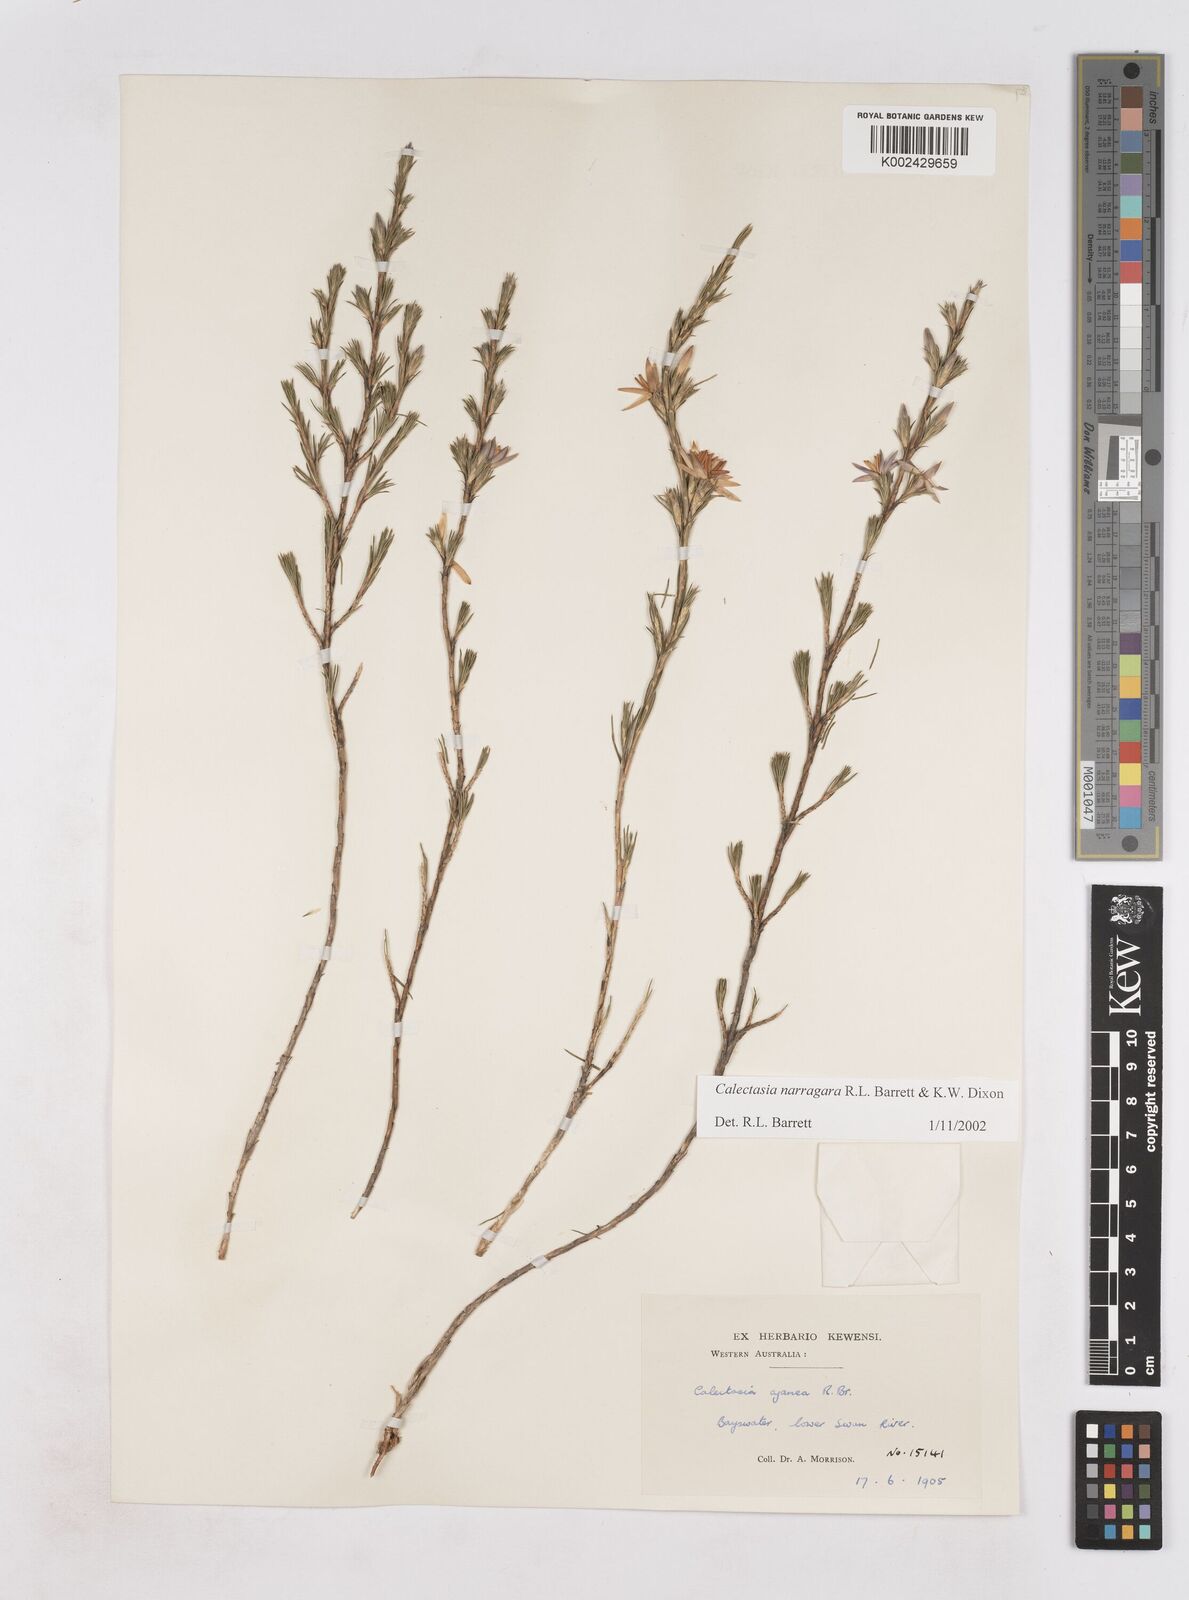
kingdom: Plantae
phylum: Tracheophyta
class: Liliopsida
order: Arecales
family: Dasypogonaceae
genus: Calectasia
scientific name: Calectasia narragara
